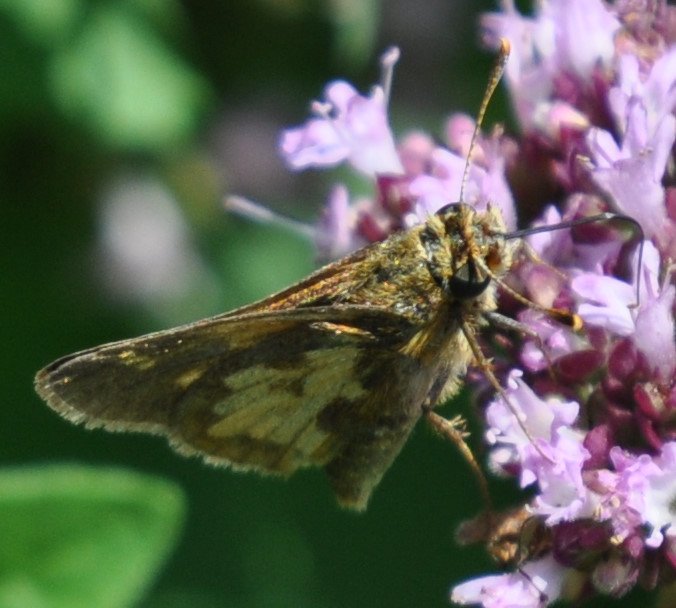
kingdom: Animalia
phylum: Arthropoda
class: Insecta
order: Lepidoptera
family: Hesperiidae
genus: Polites
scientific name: Polites coras
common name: Peck's Skipper
